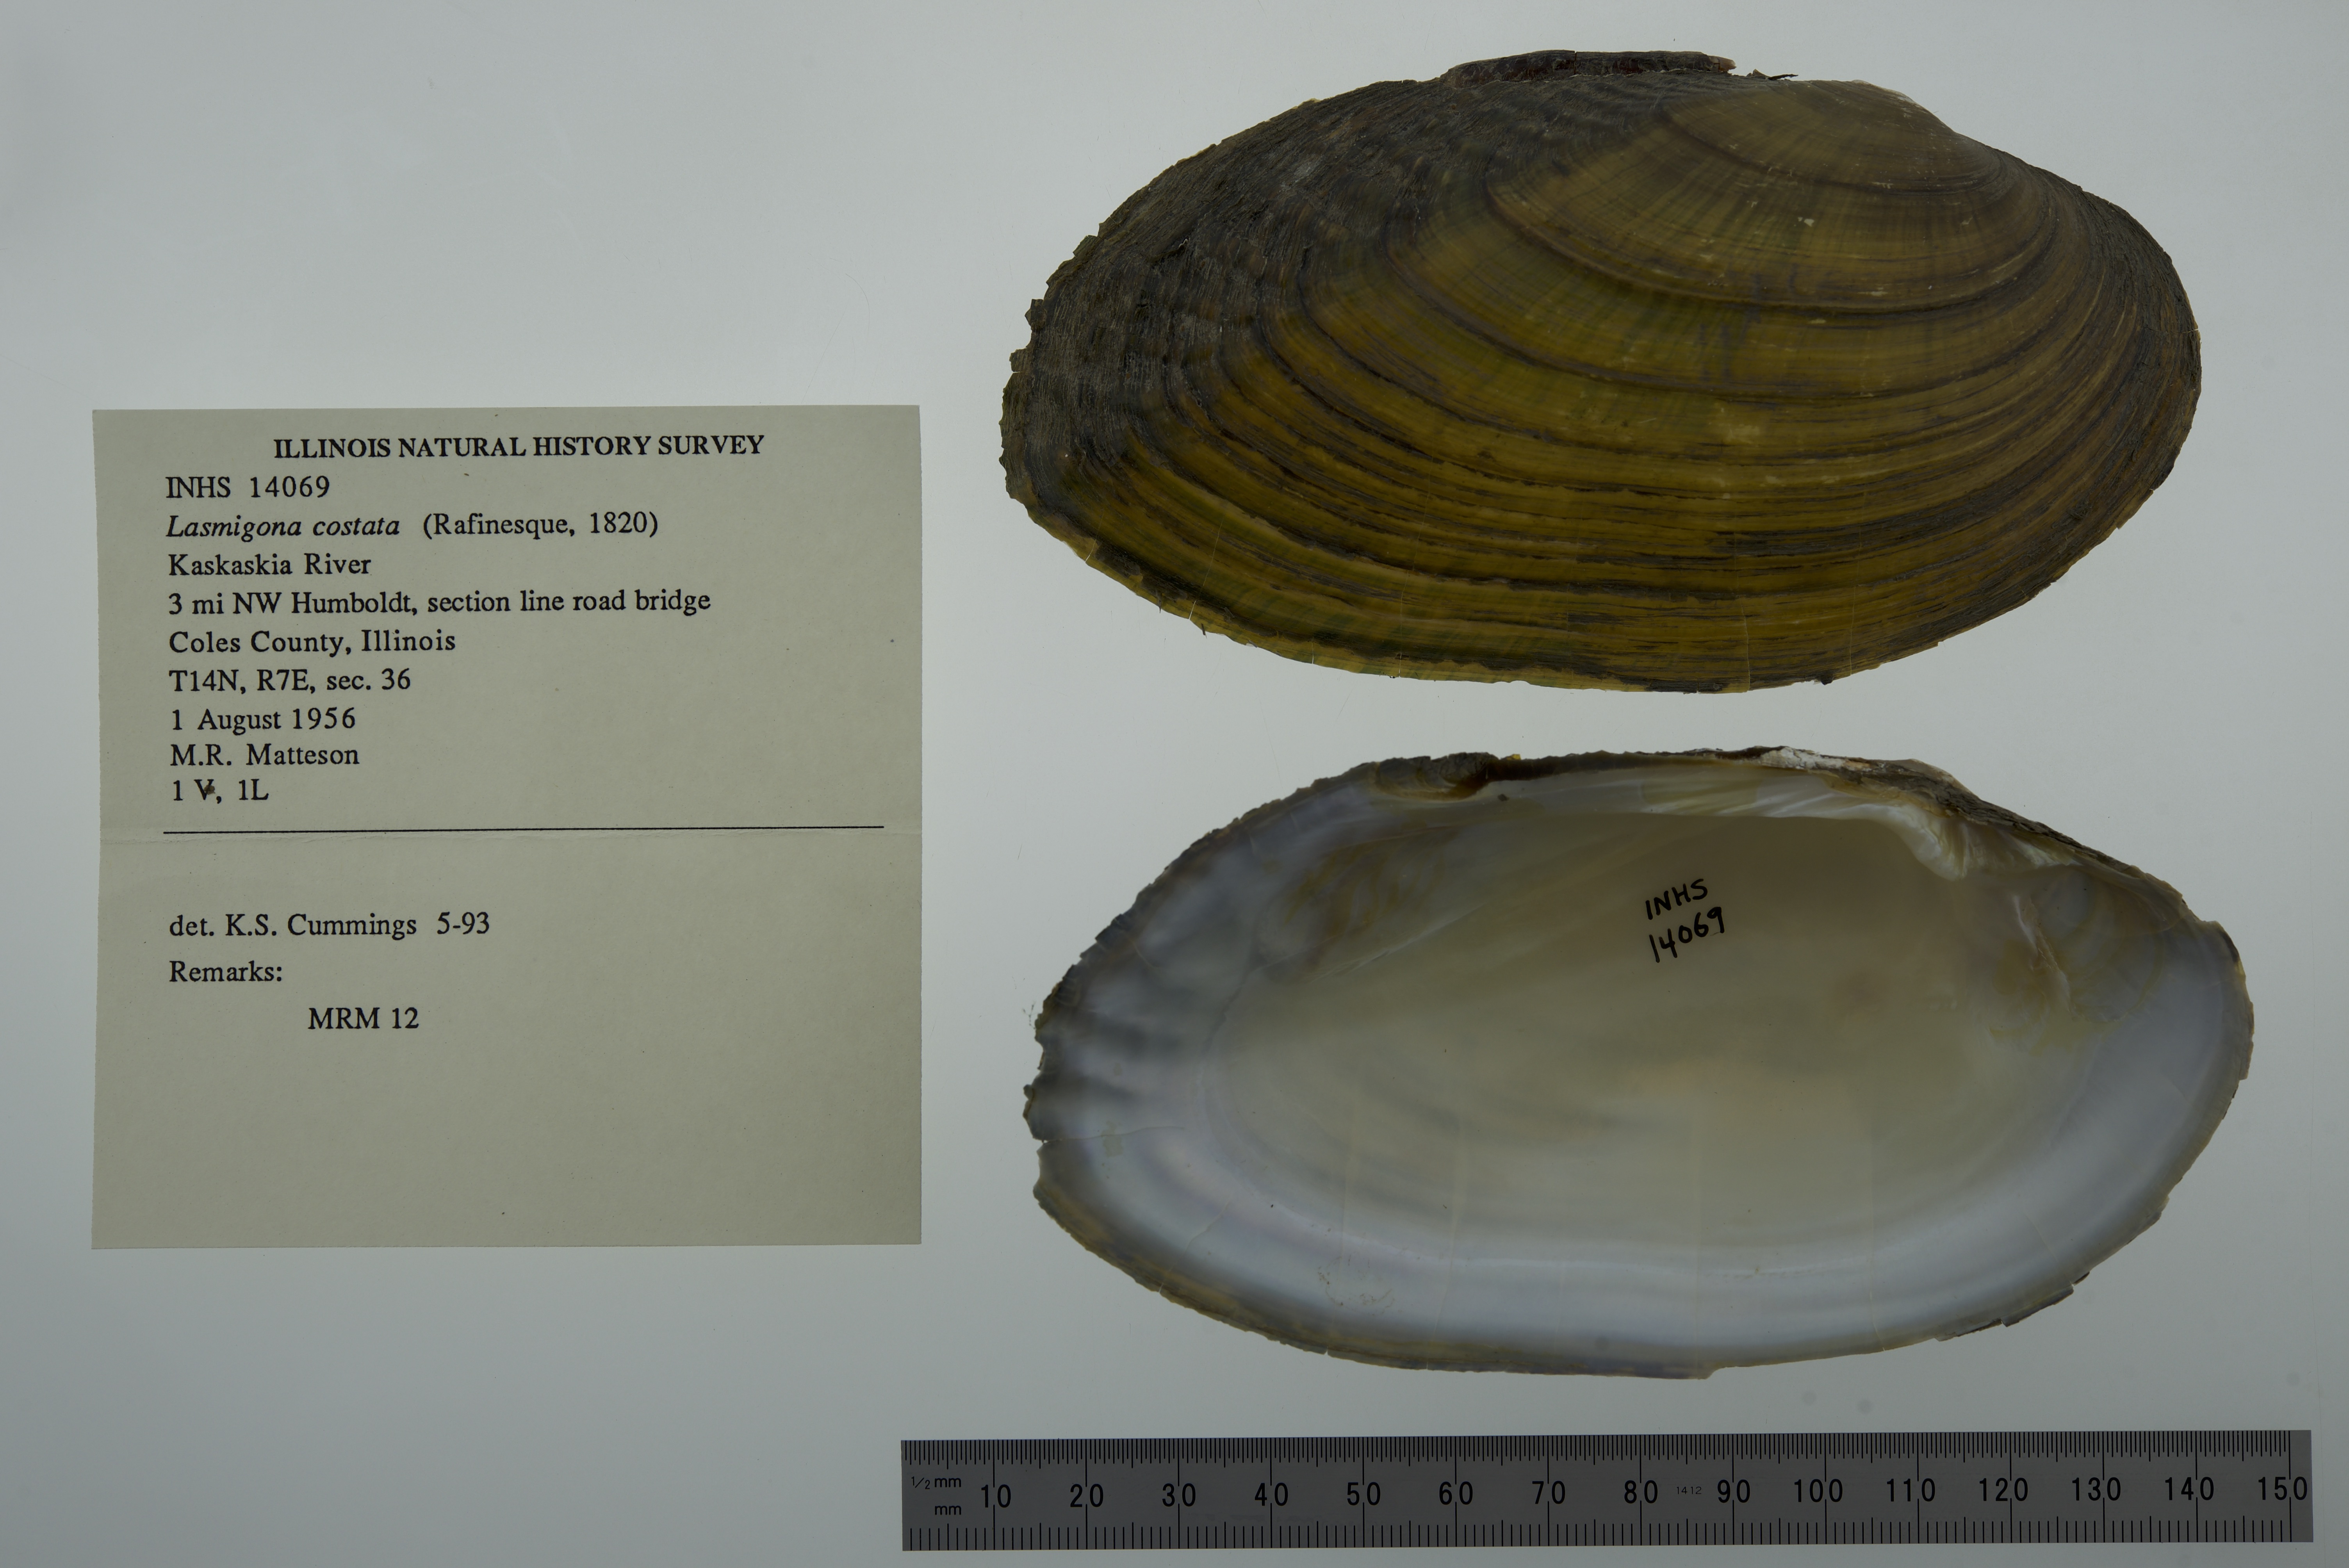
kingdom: Animalia
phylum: Mollusca
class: Bivalvia
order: Unionida
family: Unionidae
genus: Lasmigona
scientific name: Lasmigona costata
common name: Flutedshell
